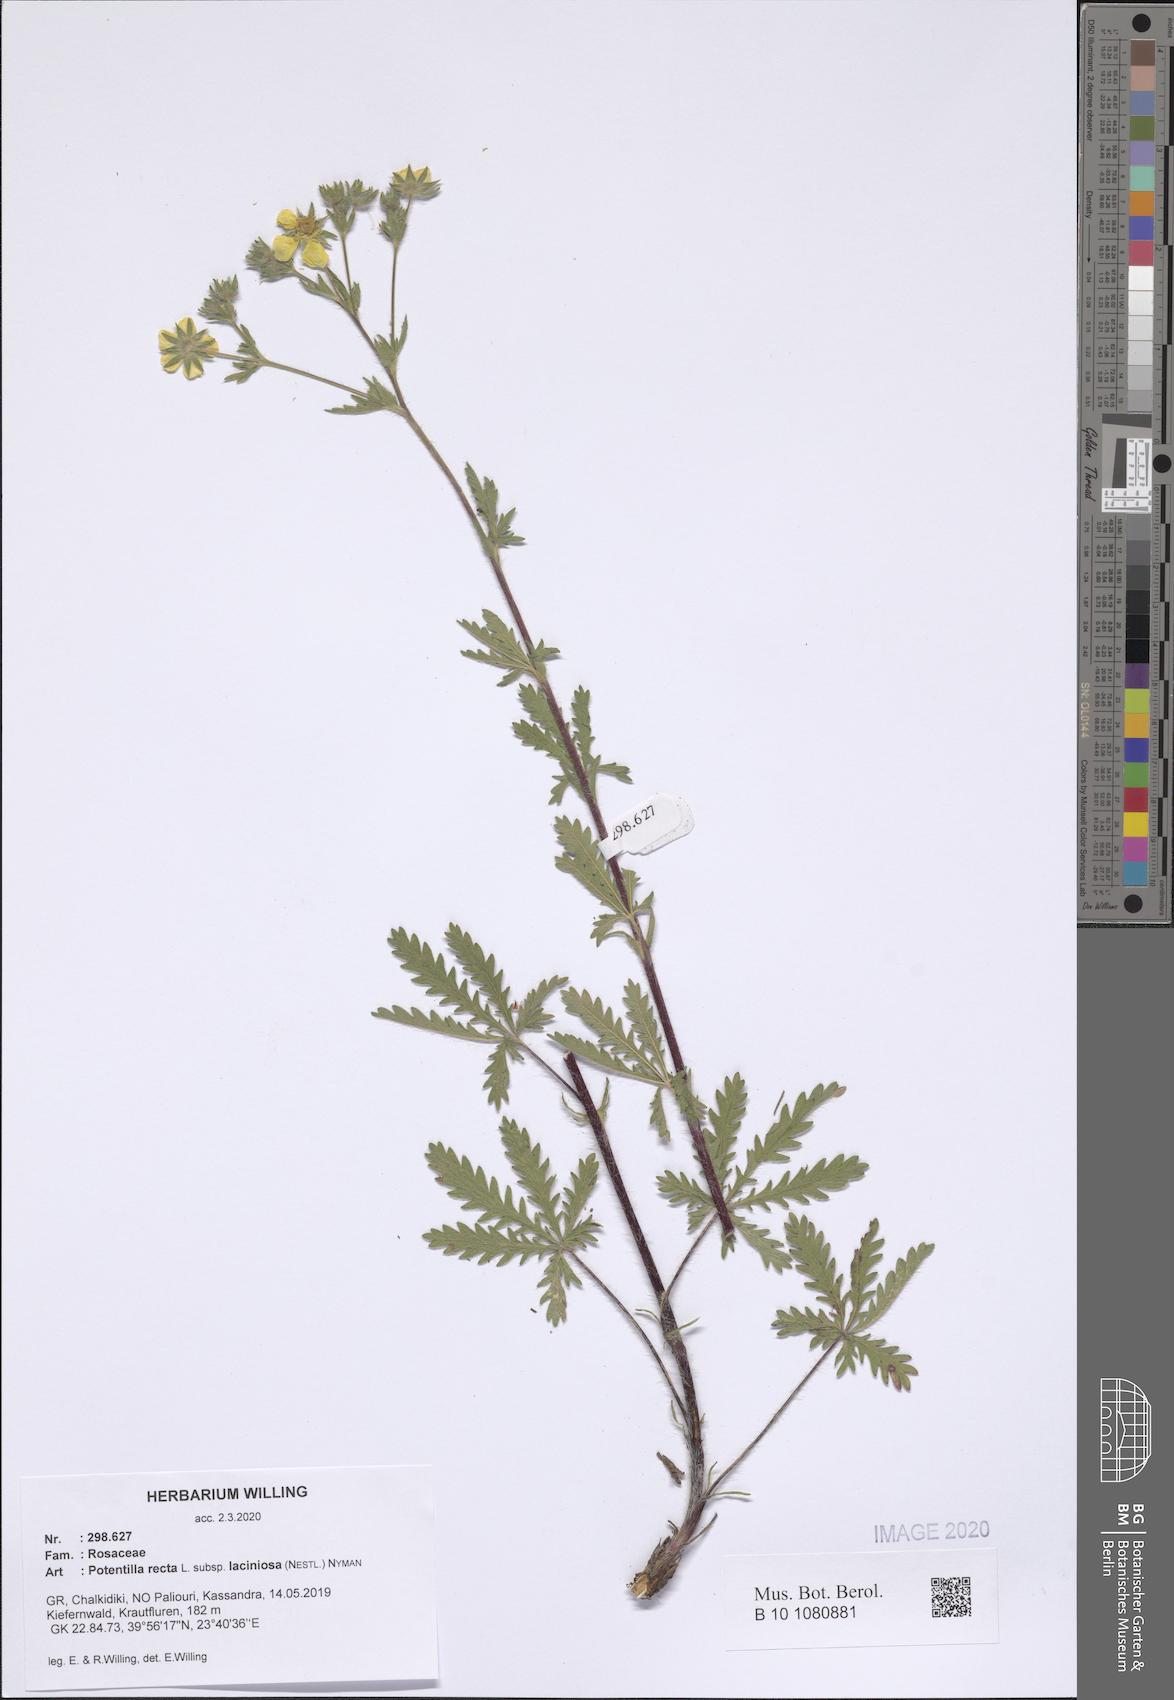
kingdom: Plantae
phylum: Tracheophyta
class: Magnoliopsida
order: Rosales
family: Rosaceae
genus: Potentilla
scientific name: Potentilla recta
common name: Sulphur cinquefoil
